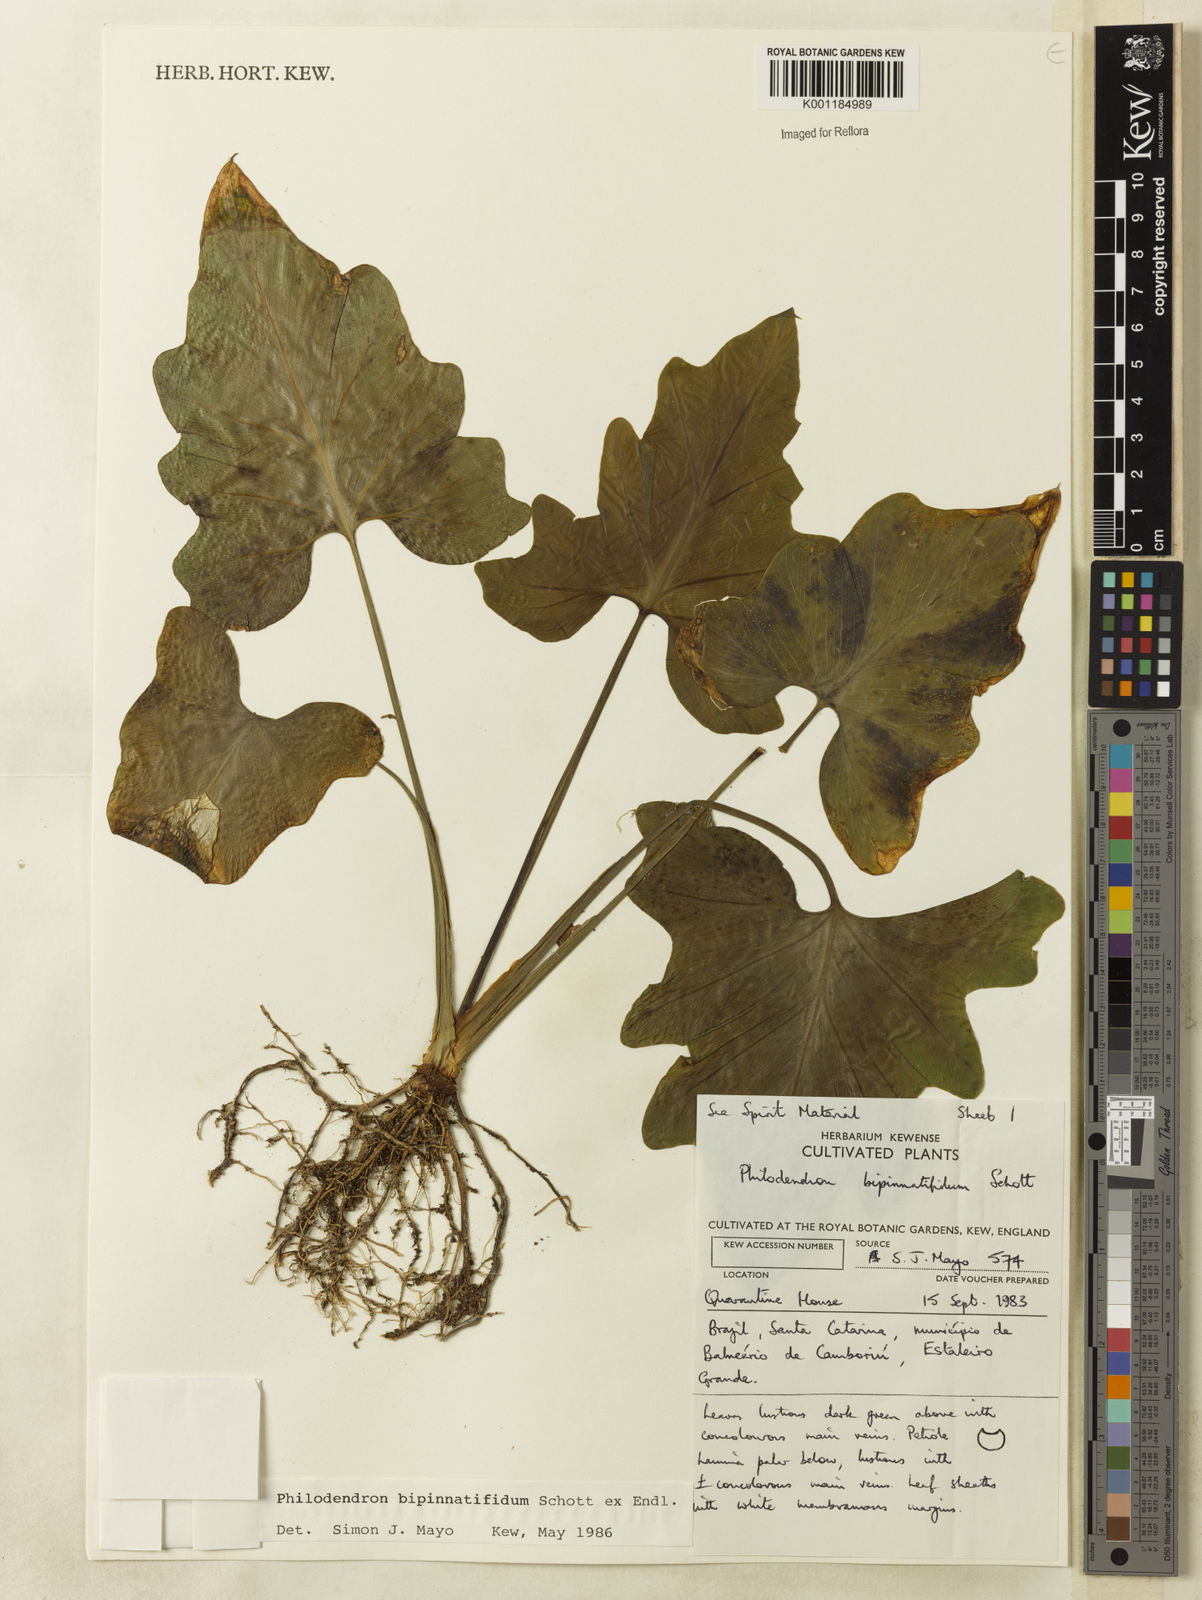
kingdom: Plantae
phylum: Tracheophyta
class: Liliopsida
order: Alismatales
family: Araceae
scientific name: Araceae
